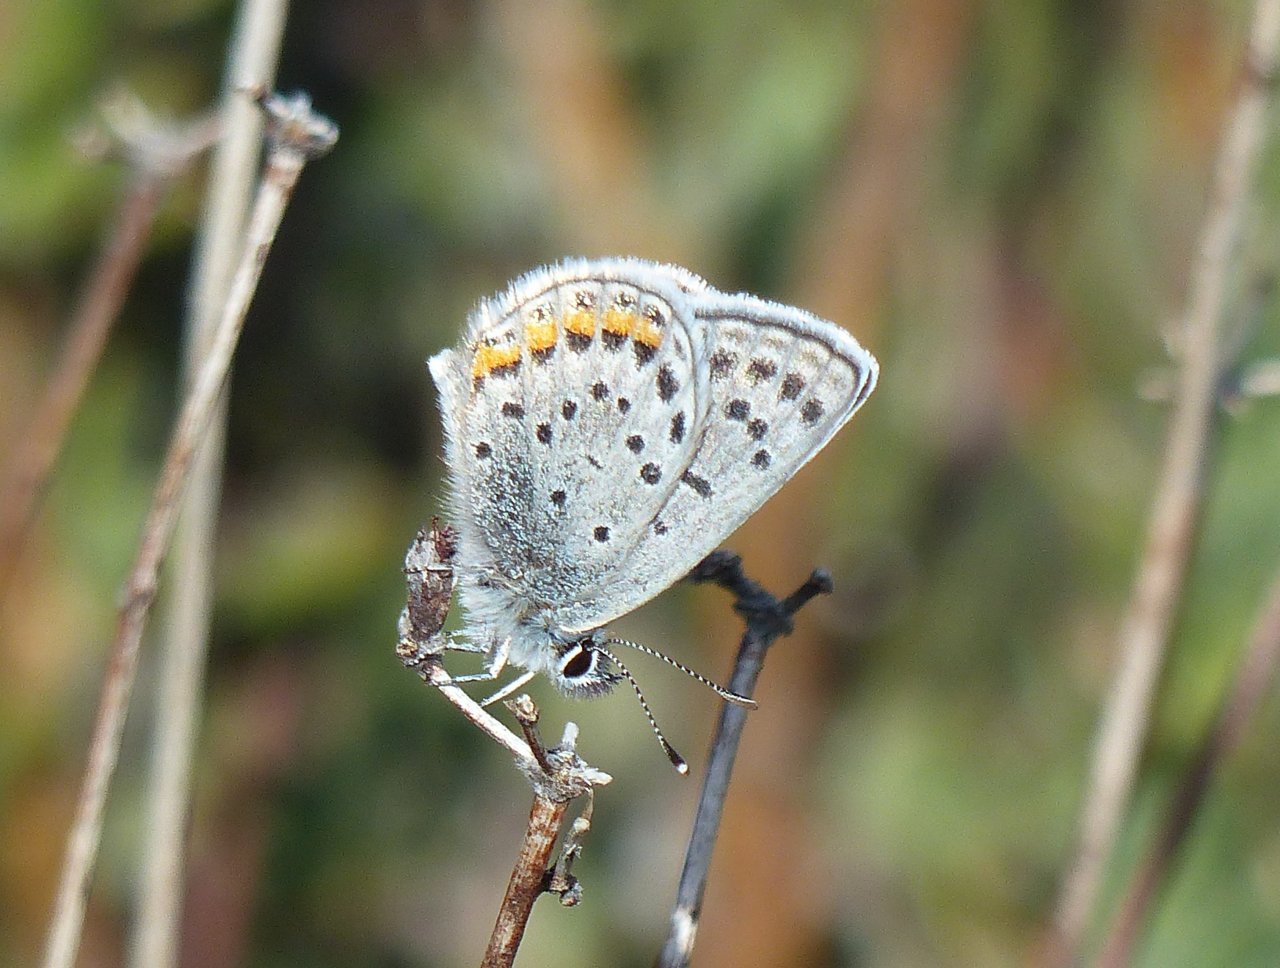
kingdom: Animalia
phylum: Arthropoda
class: Insecta
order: Lepidoptera
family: Lycaenidae
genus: Plebejus
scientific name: Plebejus lupini
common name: Lupine Blue
